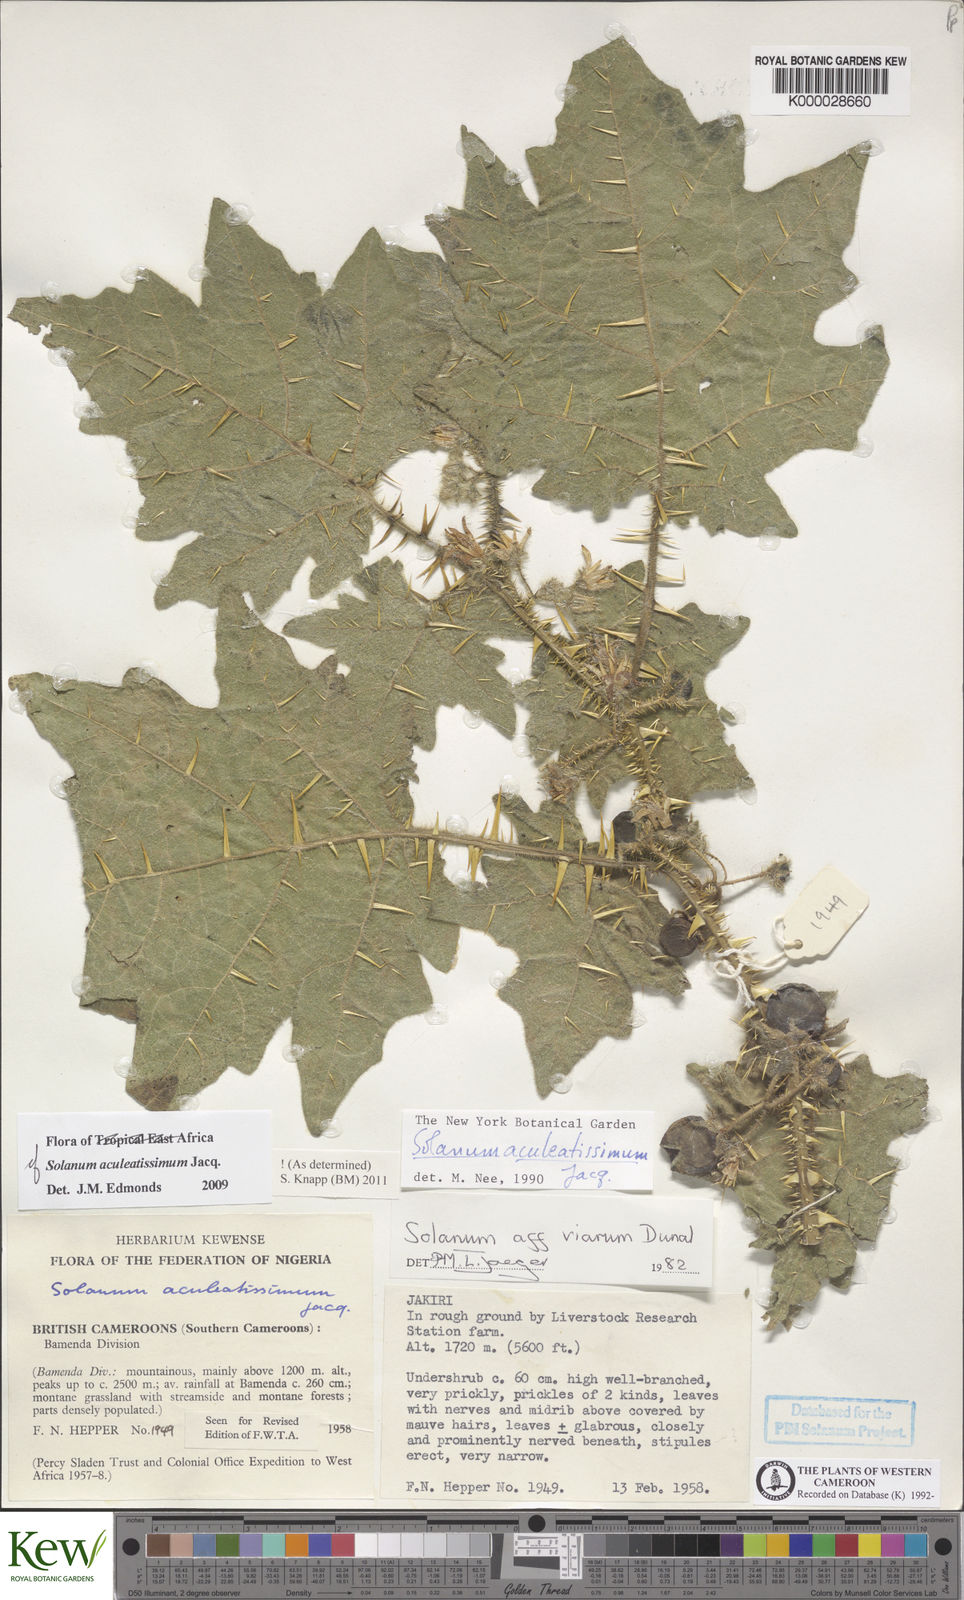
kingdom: Plantae
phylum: Tracheophyta
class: Magnoliopsida
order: Solanales
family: Solanaceae
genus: Solanum
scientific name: Solanum aculeatissimum
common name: Dutch eggplant
